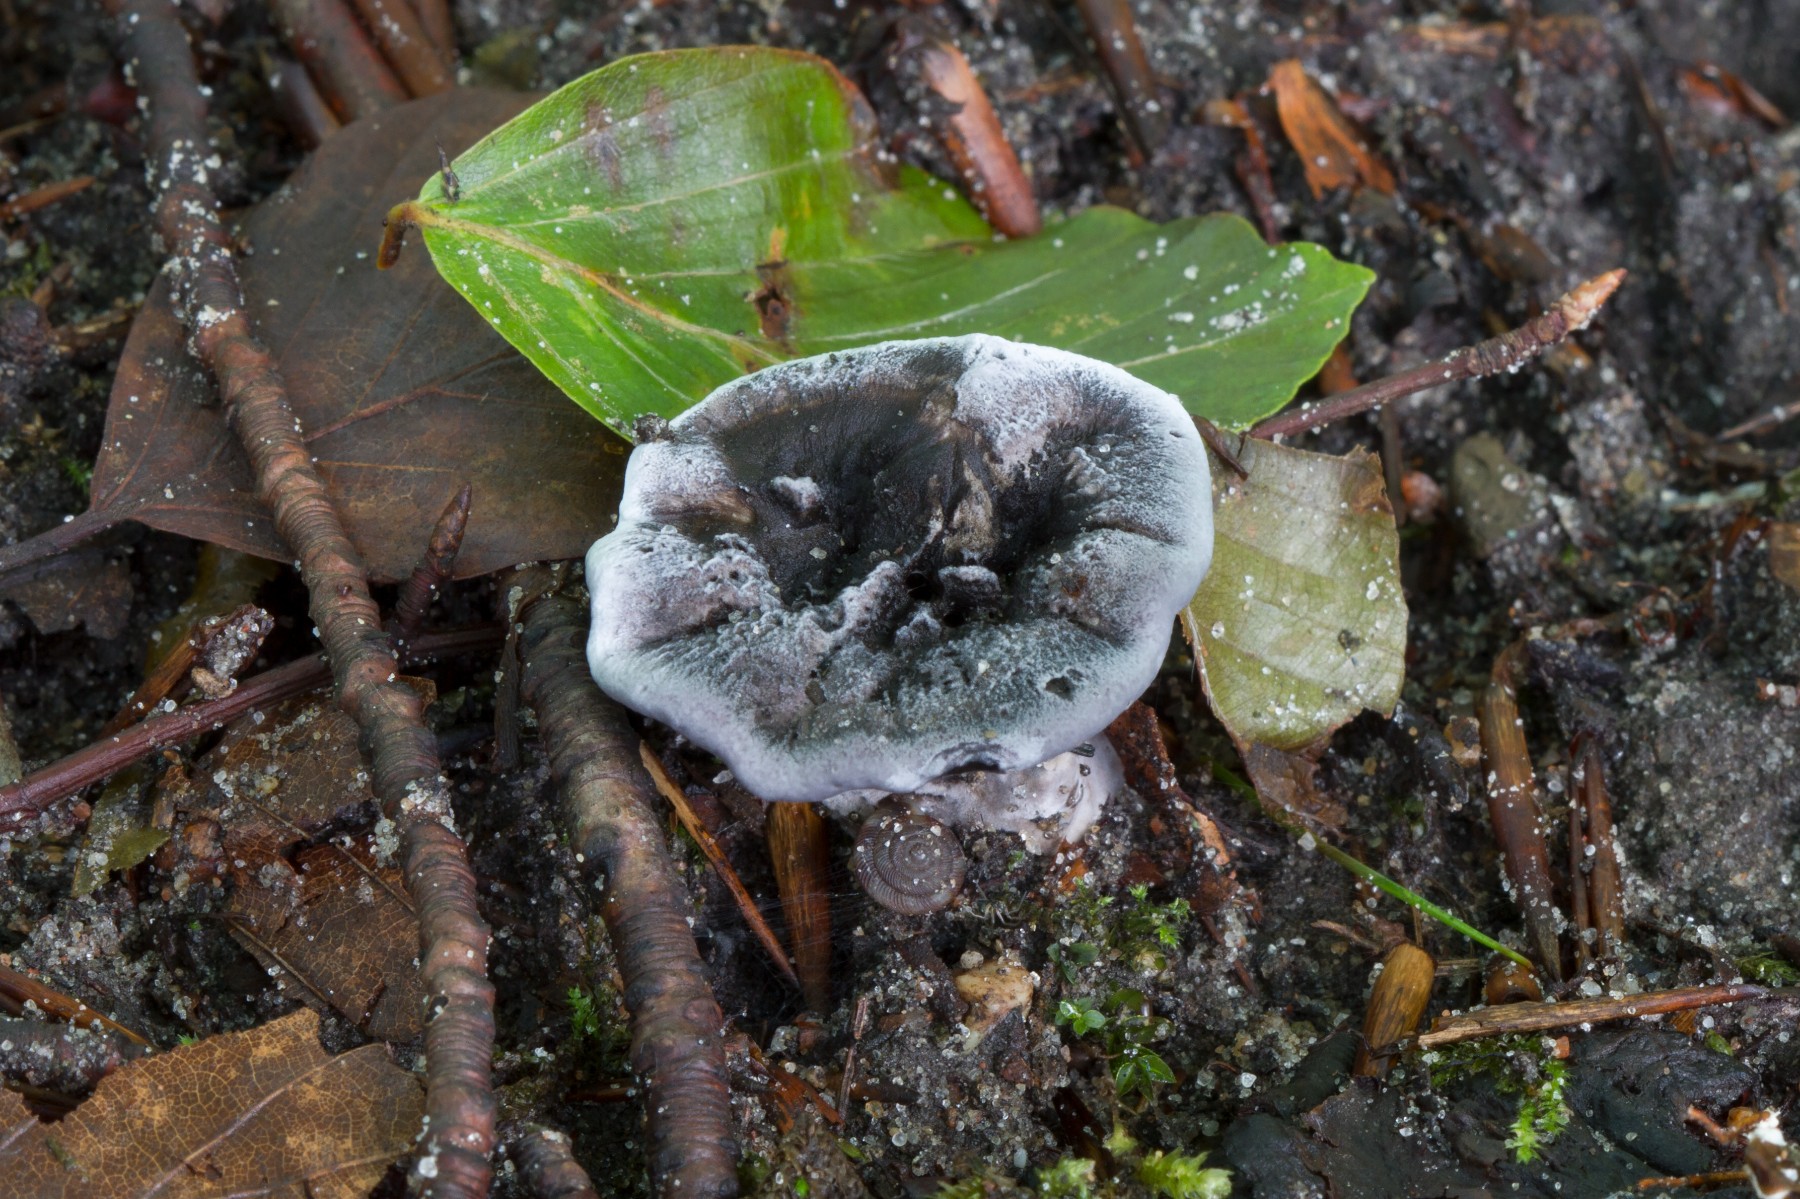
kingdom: Fungi
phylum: Basidiomycota
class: Agaricomycetes
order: Thelephorales
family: Thelephoraceae
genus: Phellodon
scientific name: Phellodon
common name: mørk duftpigsvamp
